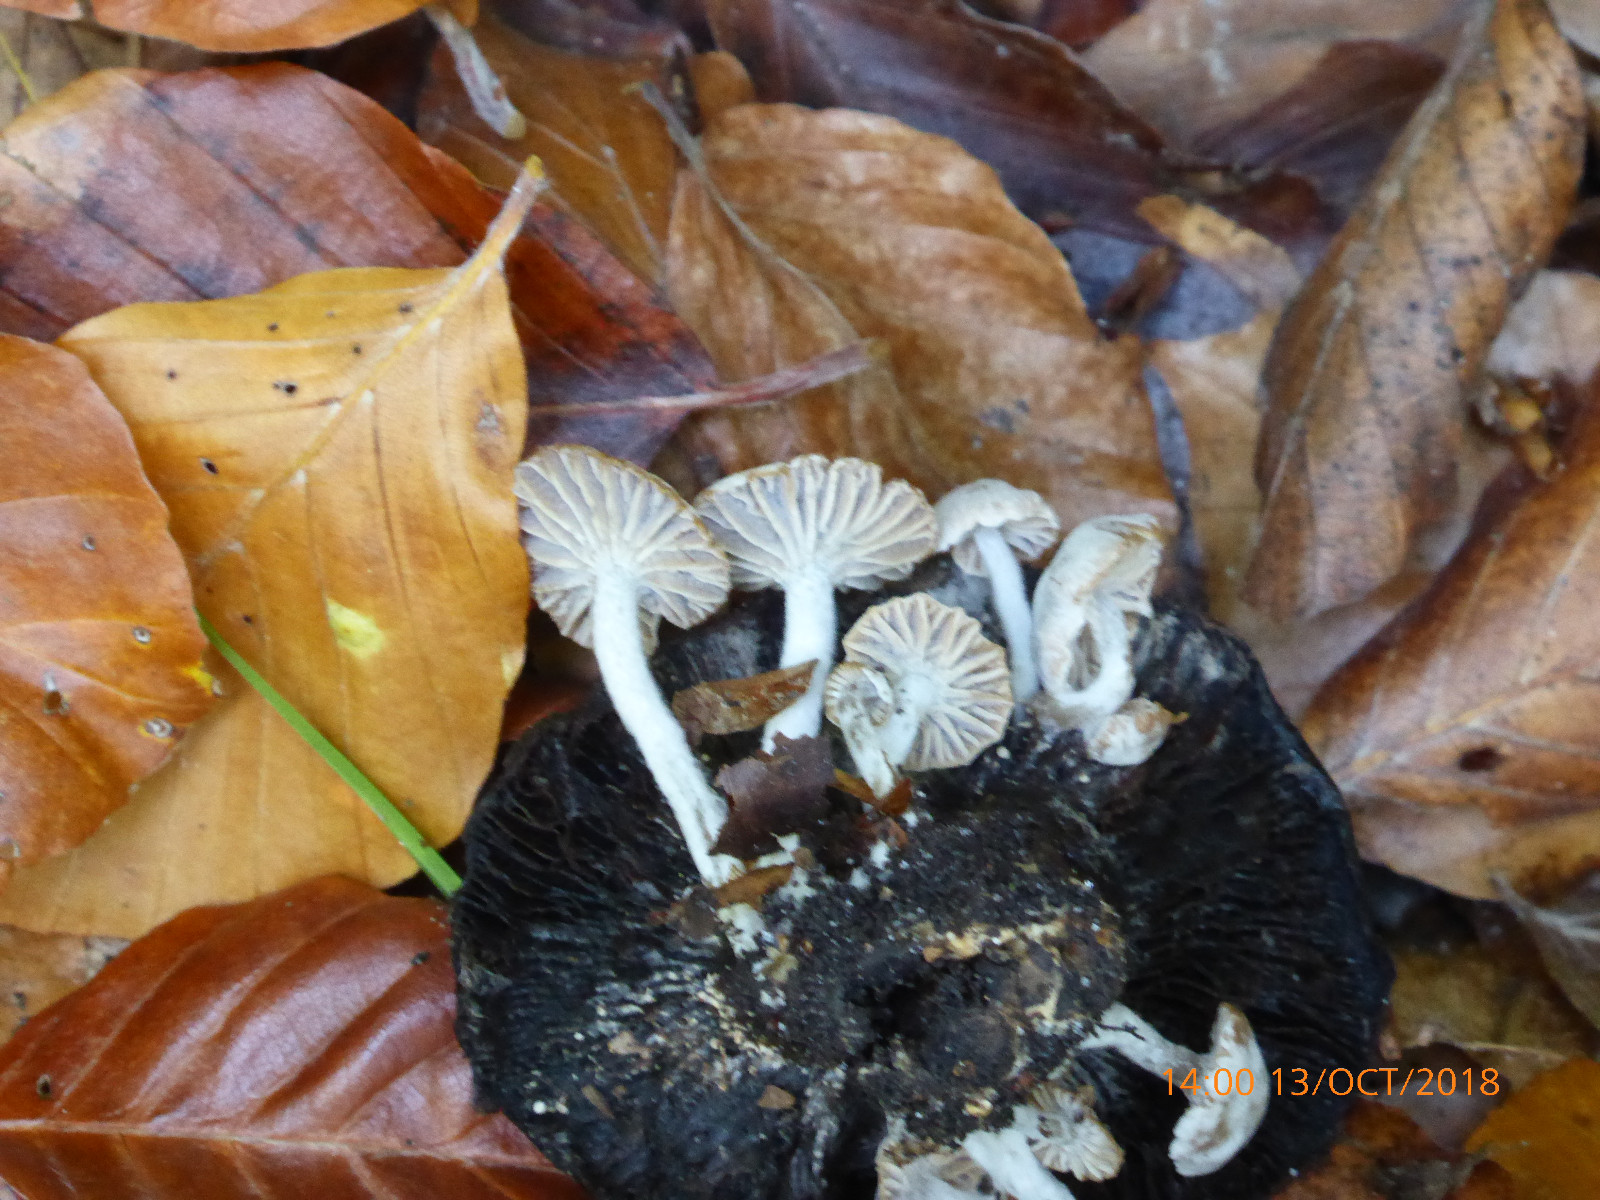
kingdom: Fungi
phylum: Basidiomycota
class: Agaricomycetes
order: Agaricales
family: Lyophyllaceae
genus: Asterophora
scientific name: Asterophora parasitica
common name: grå snyltehat
